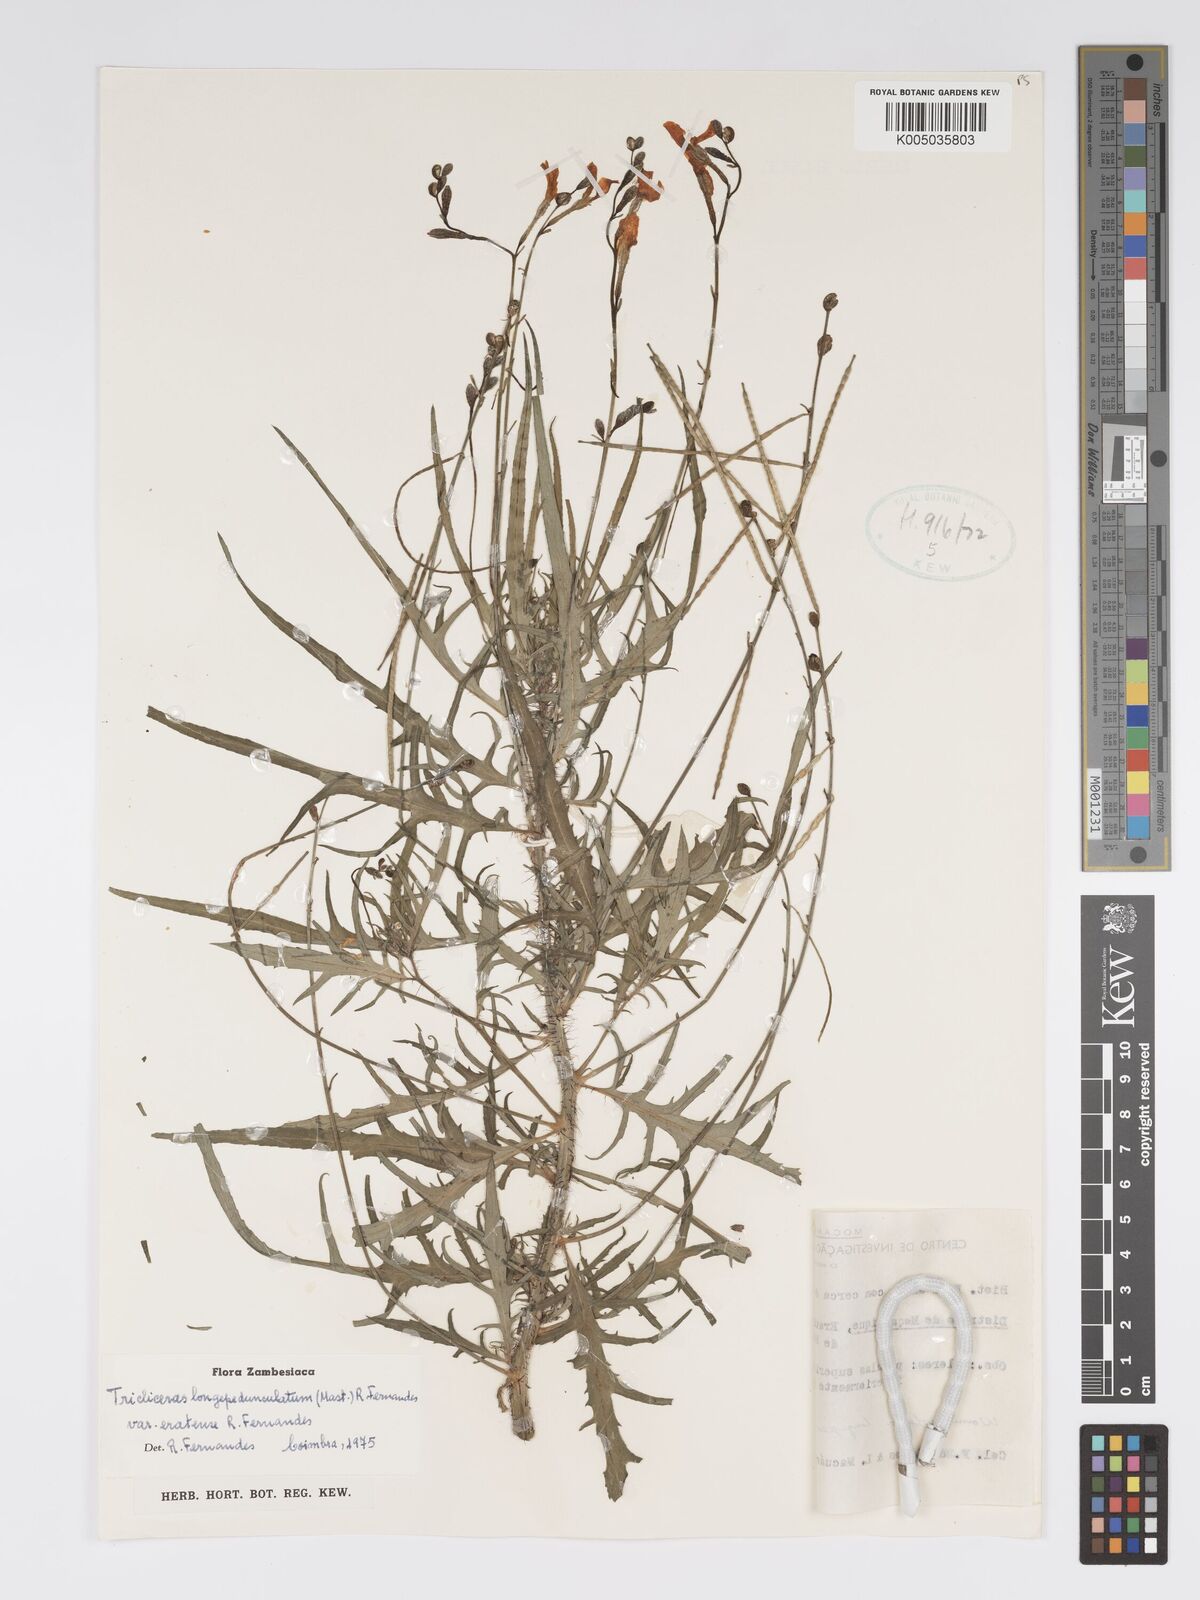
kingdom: Plantae
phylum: Tracheophyta
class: Magnoliopsida
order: Malpighiales
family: Turneraceae
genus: Tricliceras
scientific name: Tricliceras longepedunculatum
